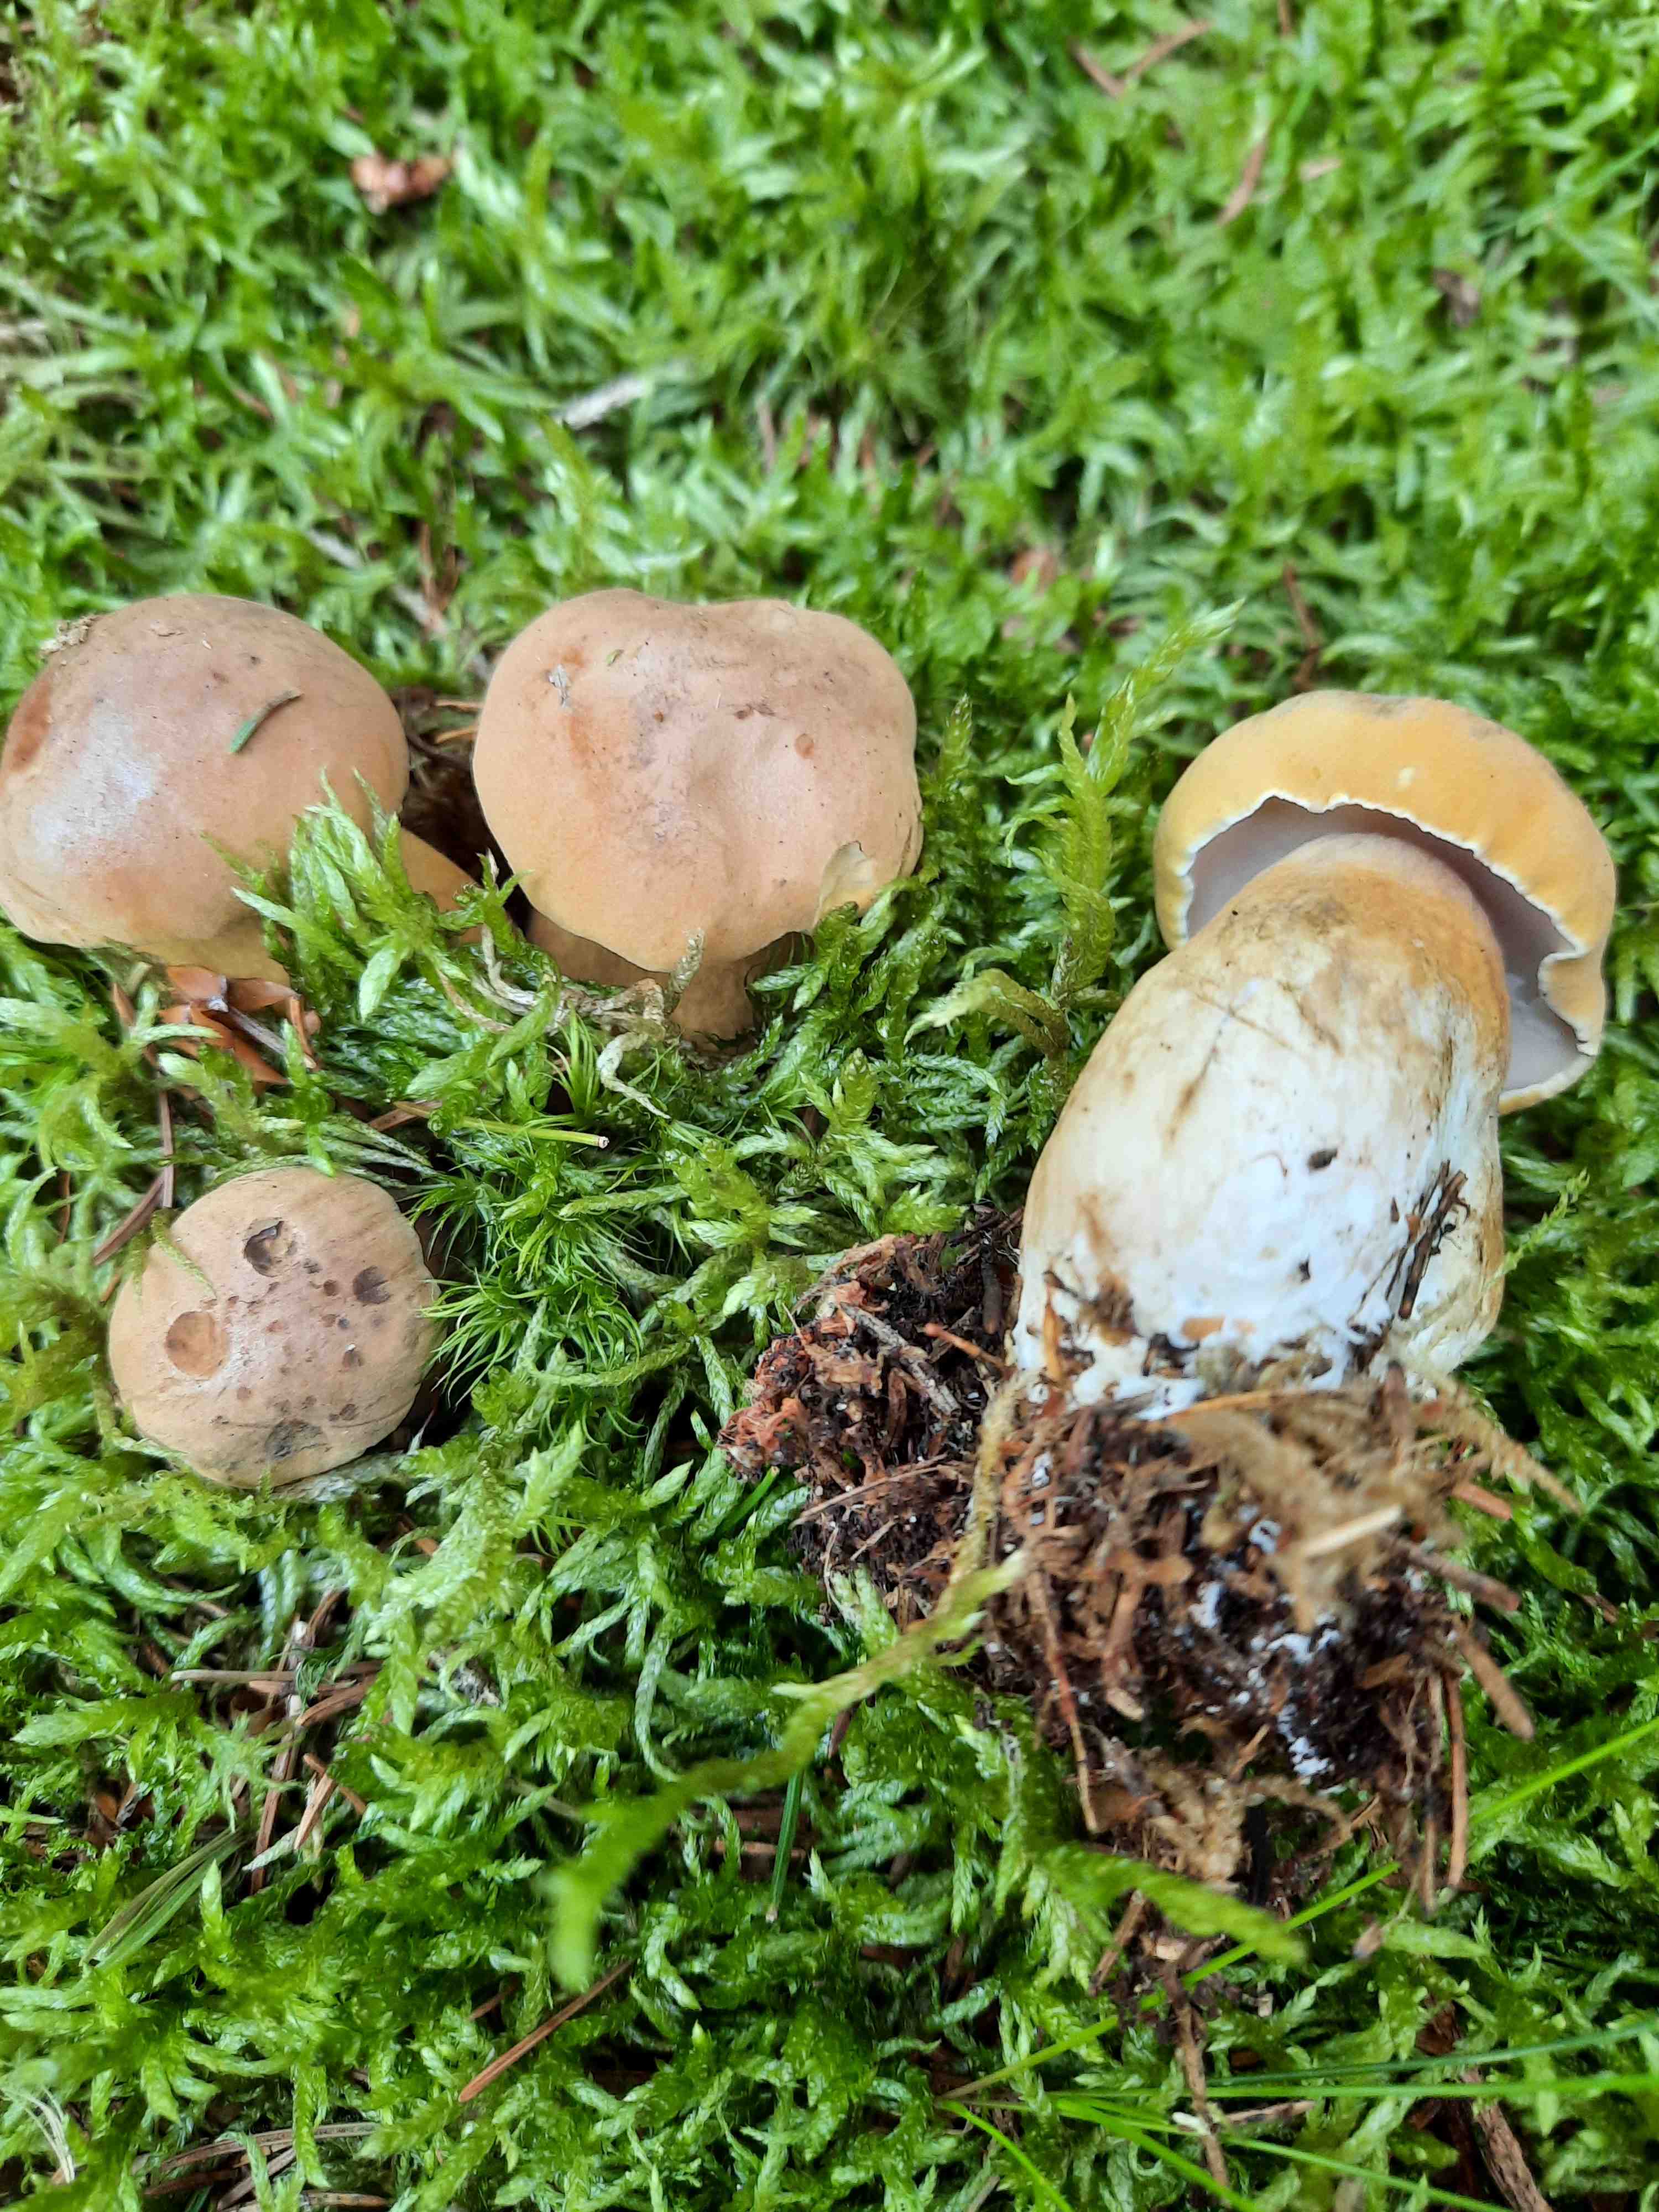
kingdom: Fungi
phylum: Basidiomycota
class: Agaricomycetes
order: Boletales
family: Boletaceae
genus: Tylopilus
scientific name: Tylopilus felleus
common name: galderørhat
